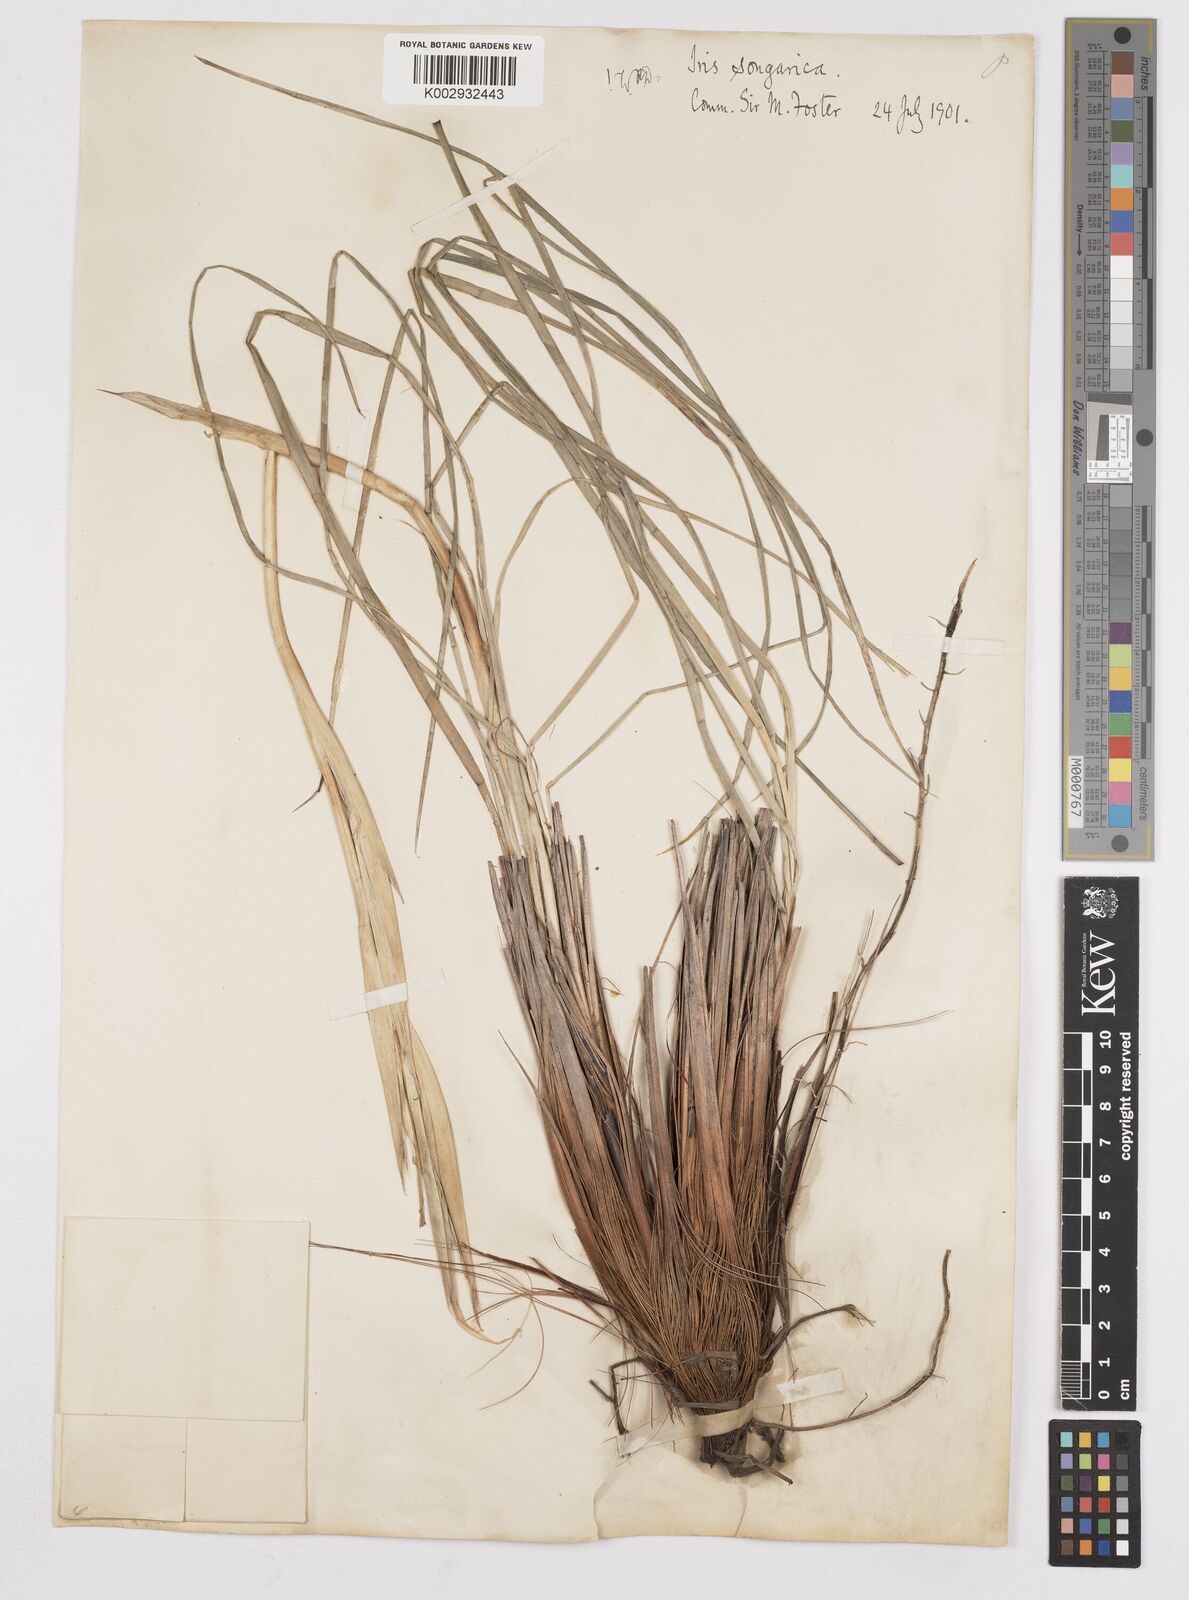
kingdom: Plantae
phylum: Tracheophyta
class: Liliopsida
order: Asparagales
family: Iridaceae
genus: Iris
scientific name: Iris songarica
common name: Songar iris
